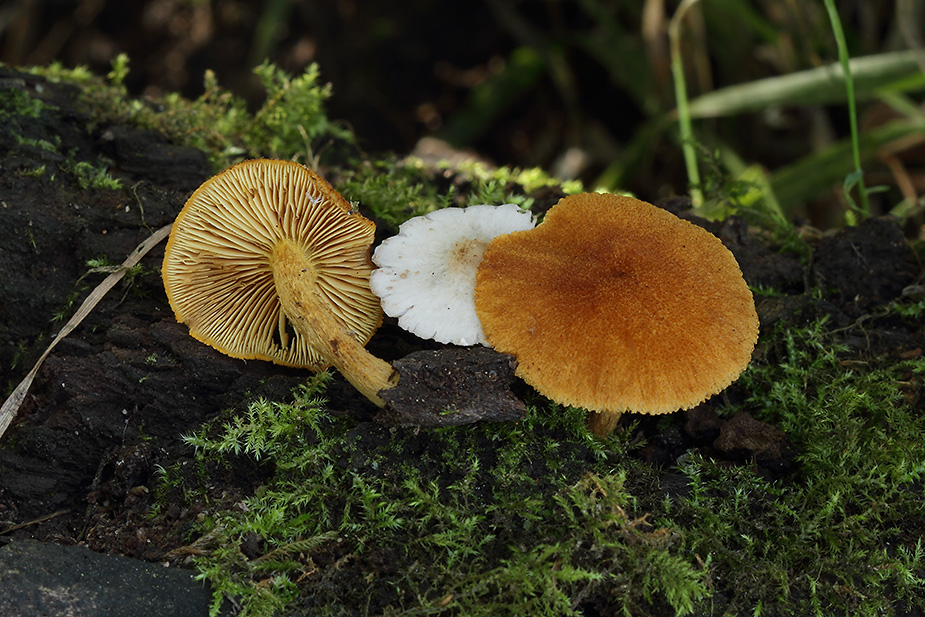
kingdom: Fungi
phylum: Basidiomycota
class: Agaricomycetes
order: Agaricales
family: Tubariaceae
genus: Flammulaster
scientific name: Flammulaster limulatus
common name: gylden grynskælhat
